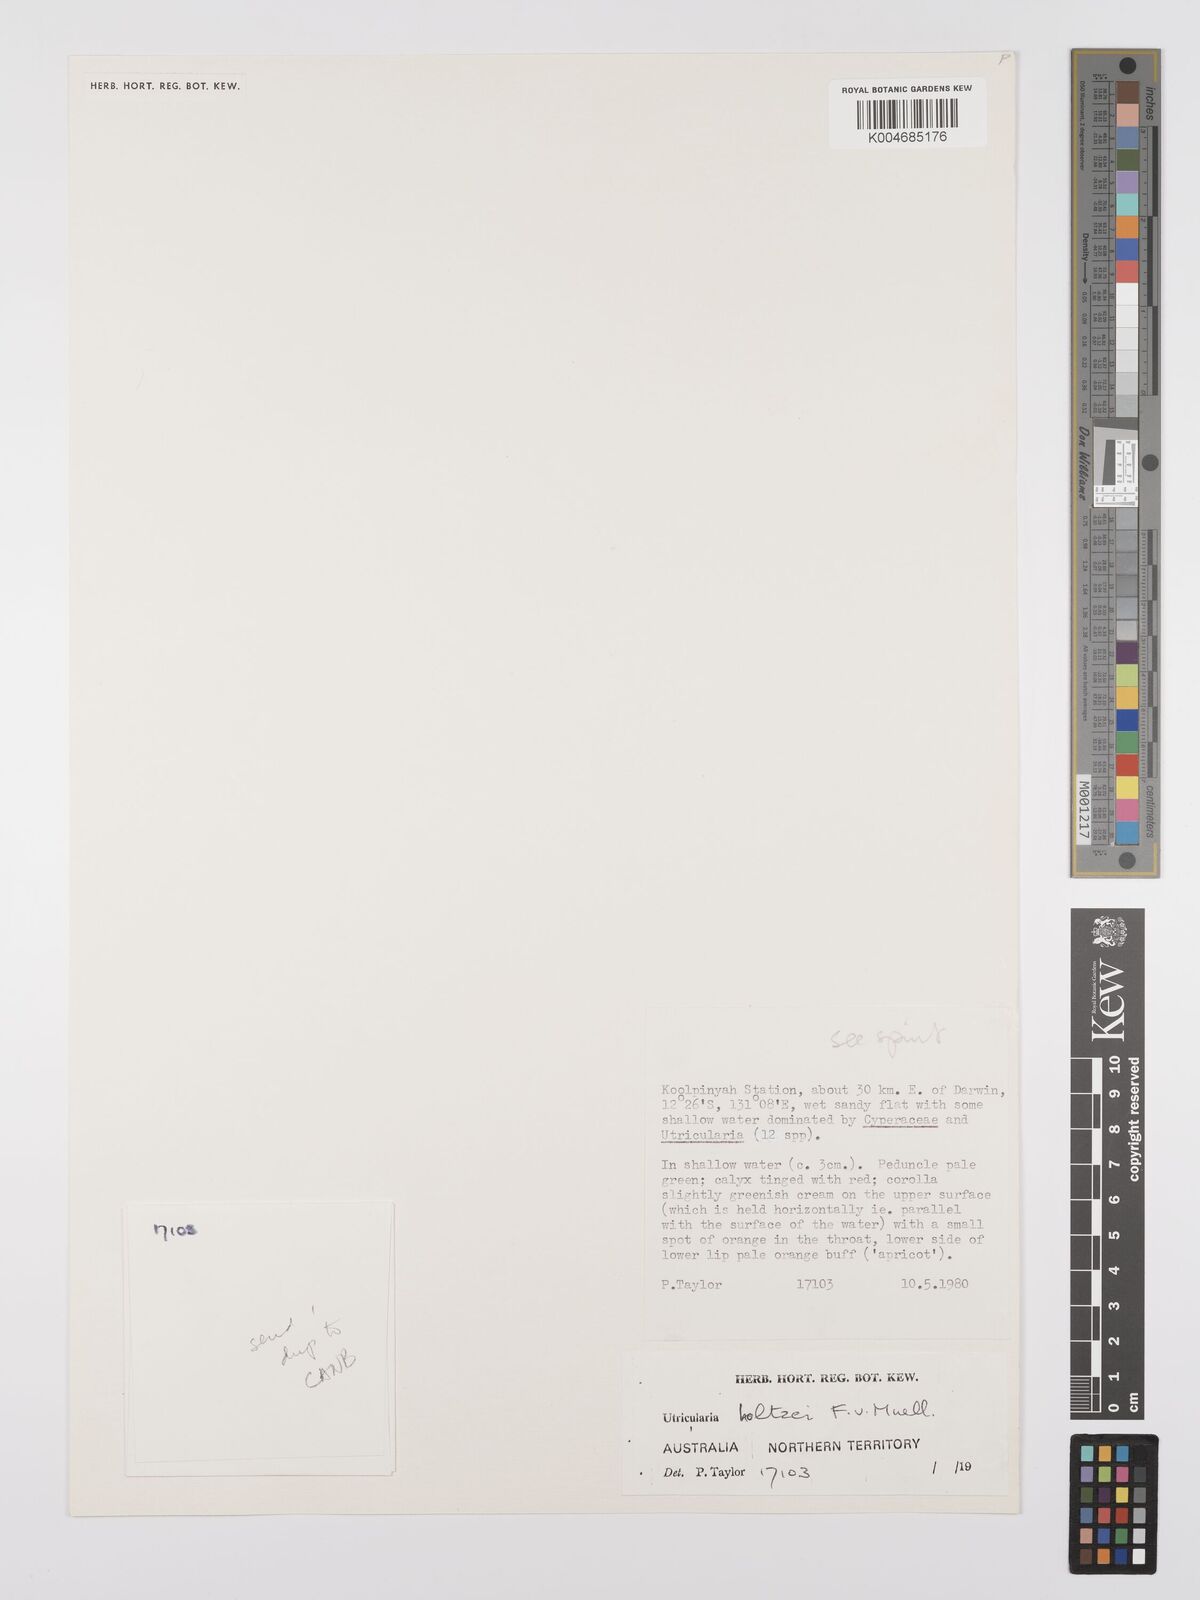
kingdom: Plantae
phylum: Tracheophyta
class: Magnoliopsida
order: Lamiales
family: Lentibulariaceae
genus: Utricularia
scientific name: Utricularia holtzei
